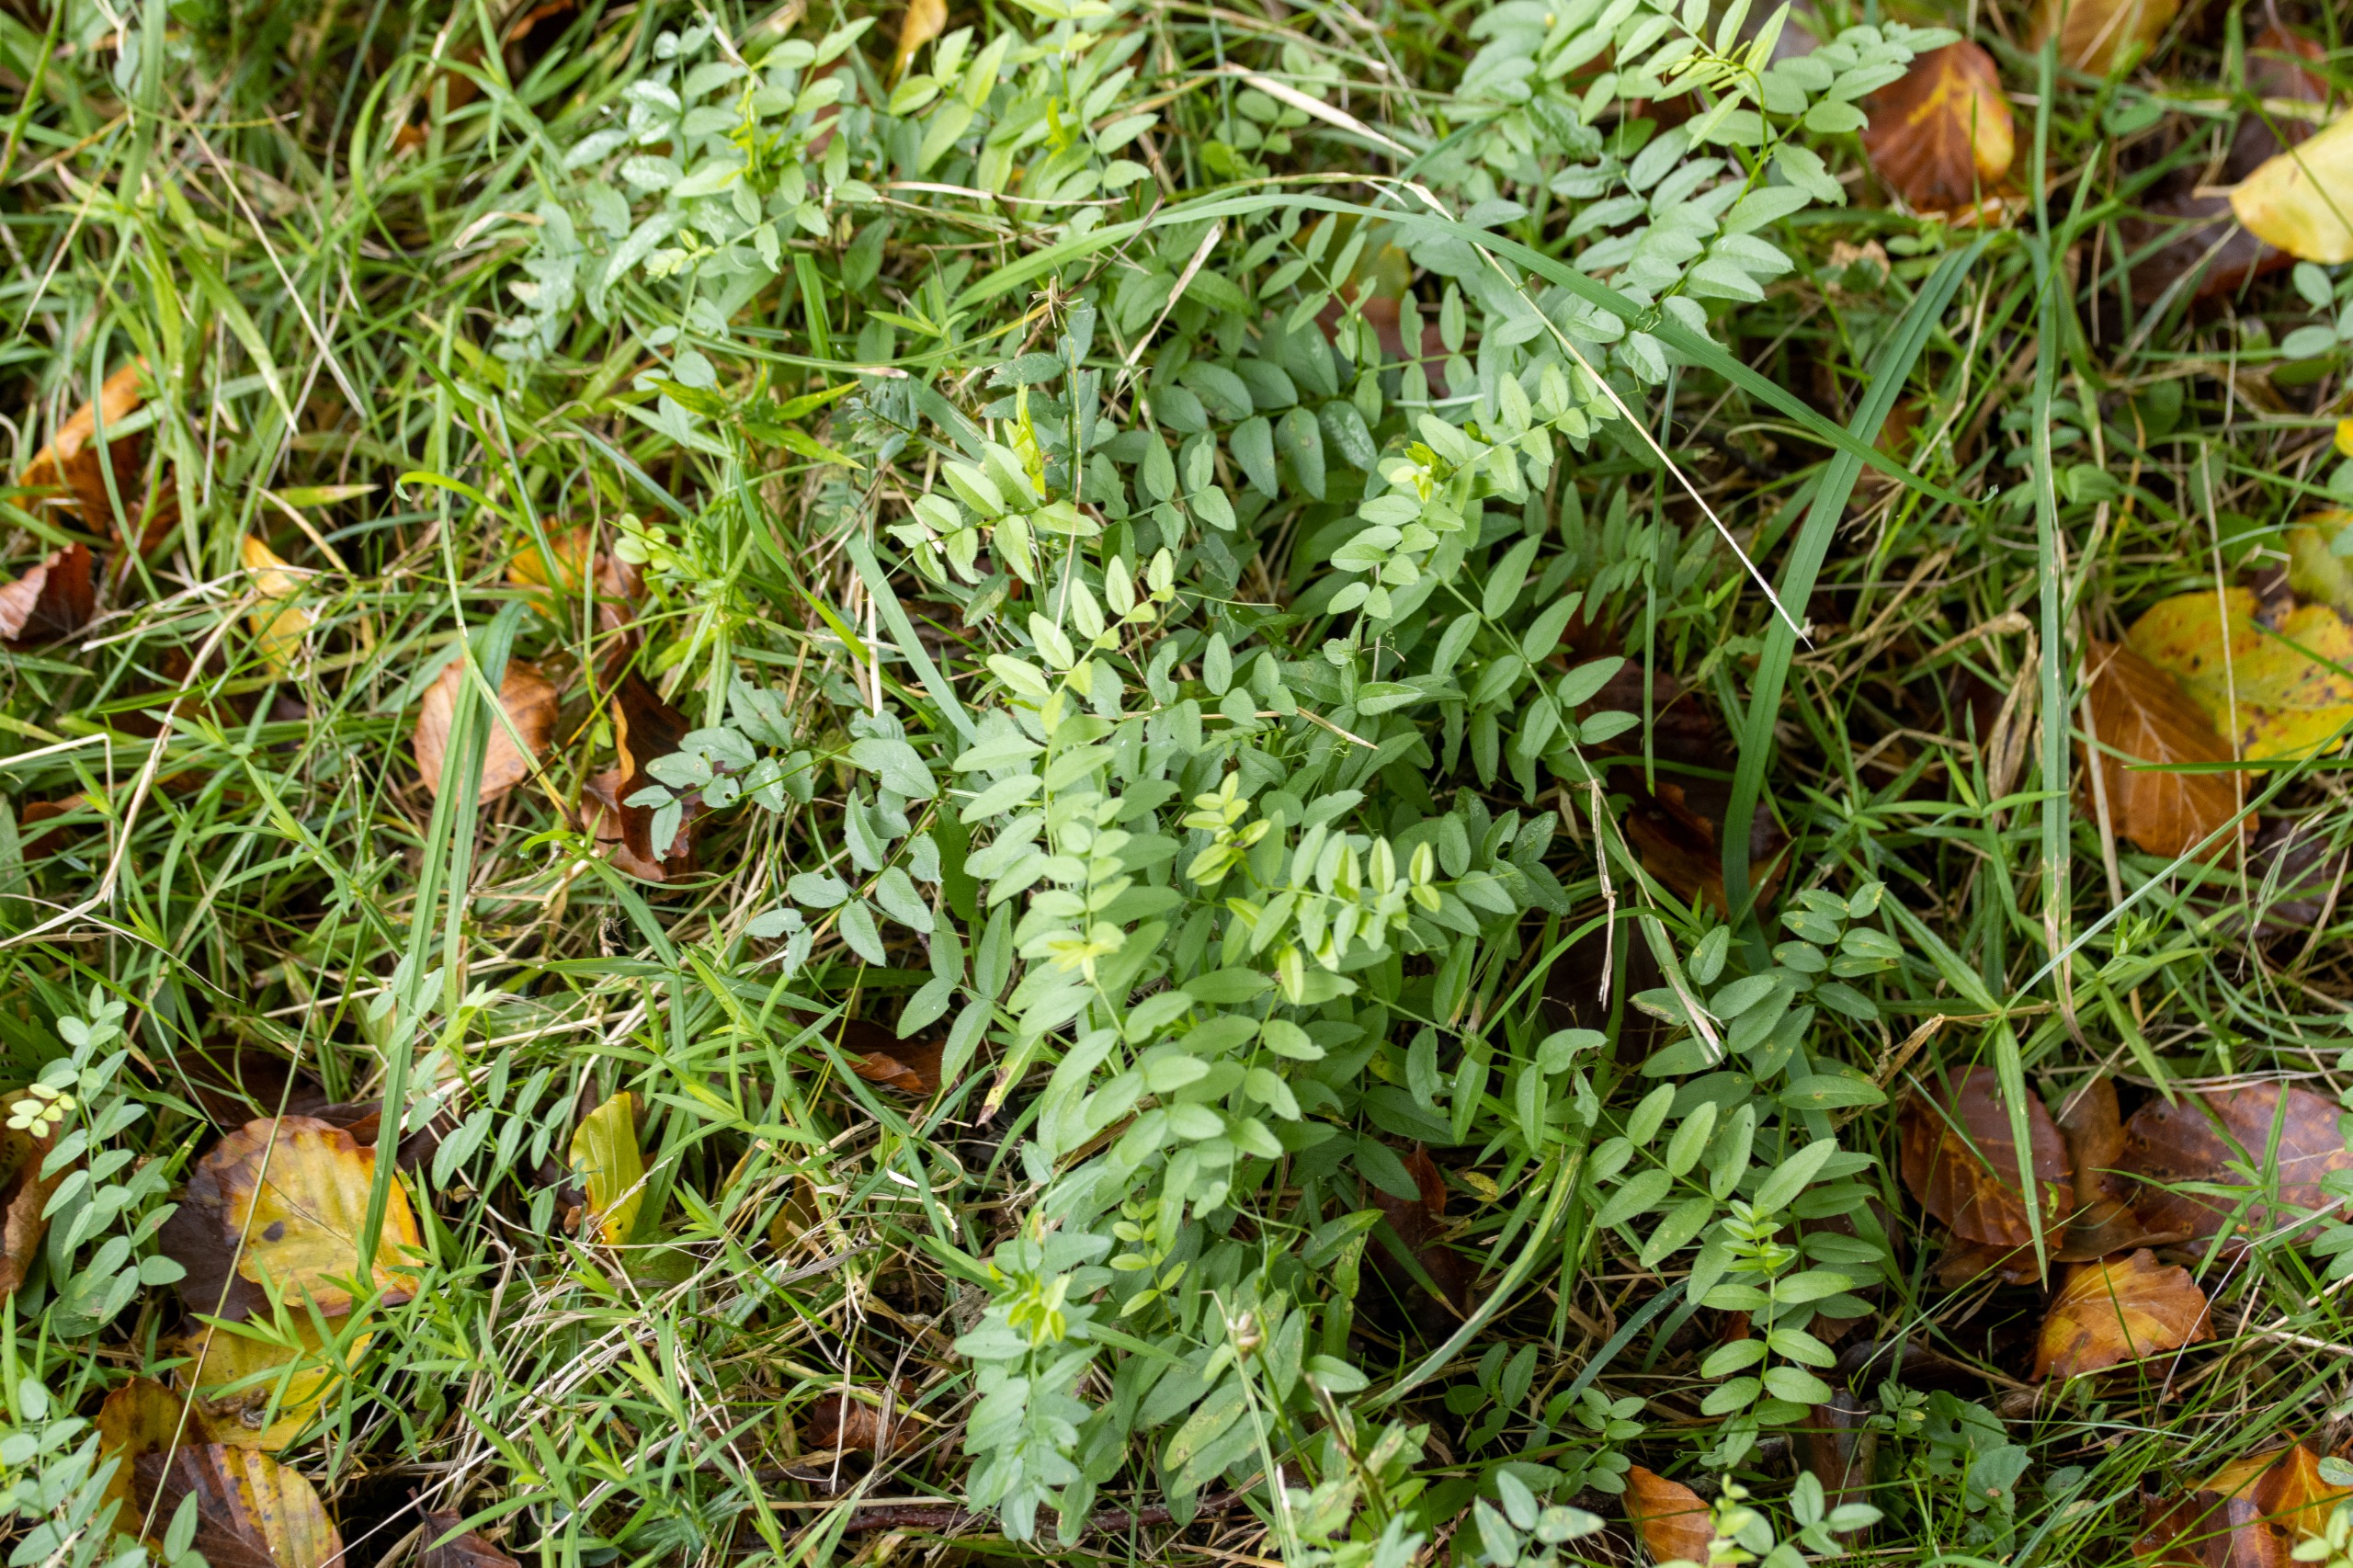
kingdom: Plantae
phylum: Tracheophyta
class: Magnoliopsida
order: Fabales
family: Fabaceae
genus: Vicia
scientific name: Vicia sepium
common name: Gærde-vikke
